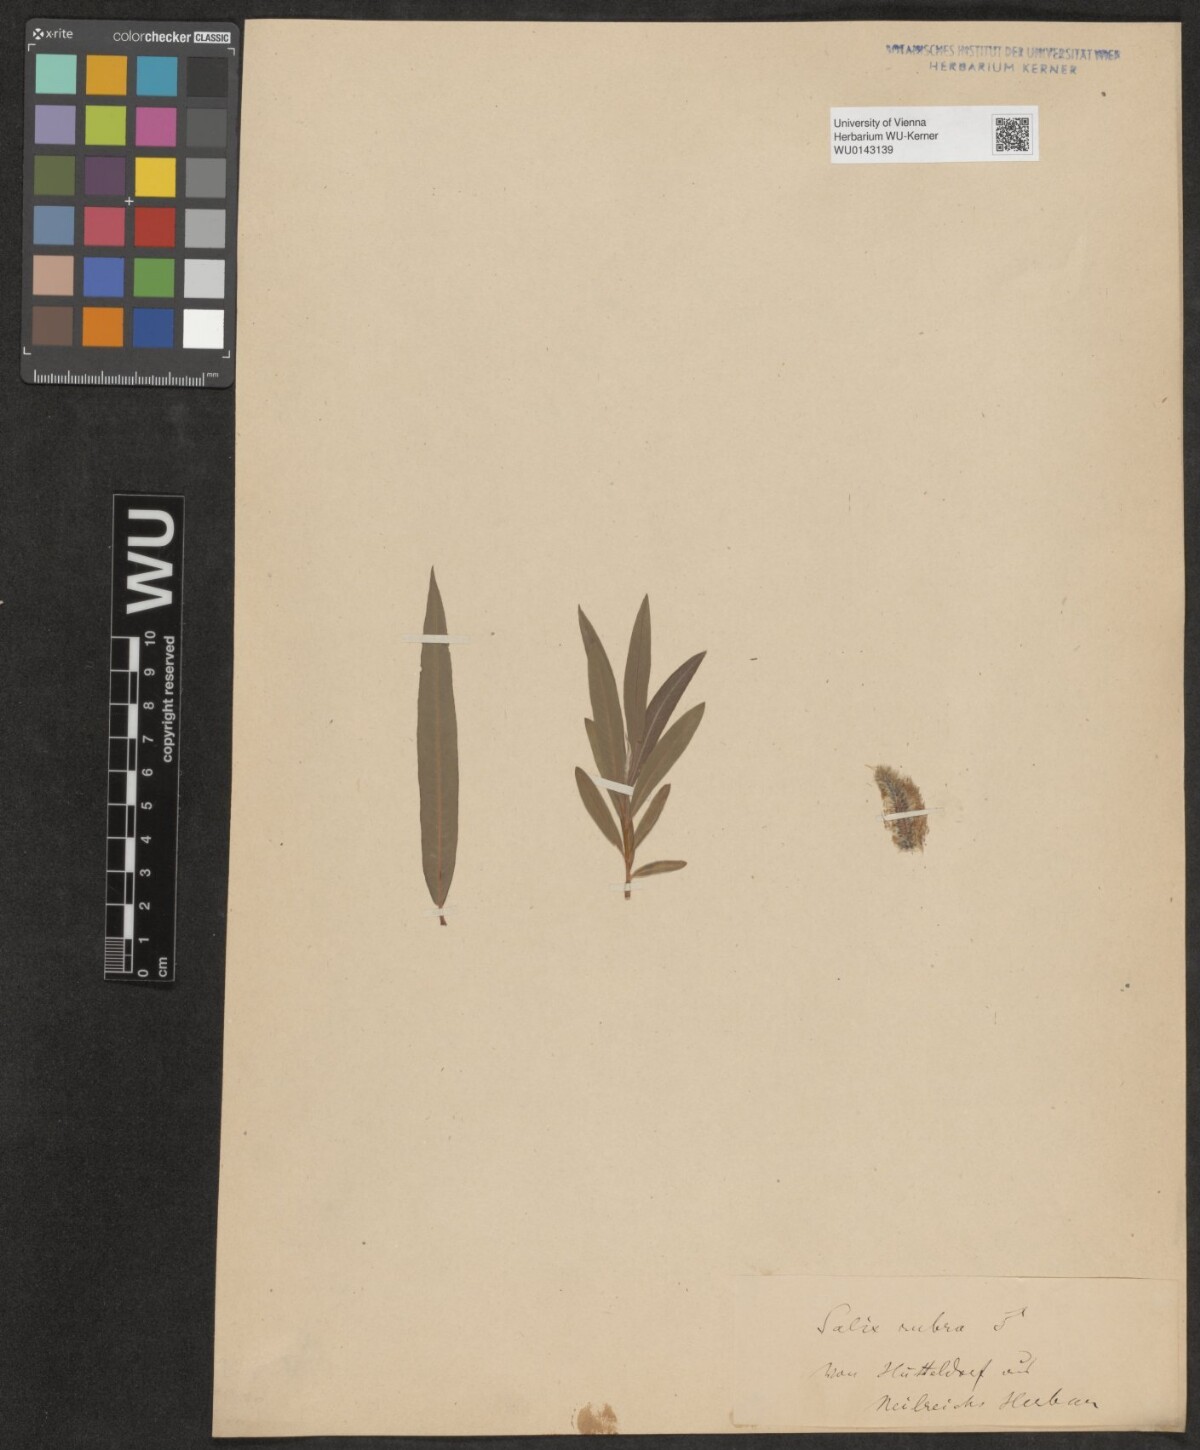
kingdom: Plantae
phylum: Tracheophyta
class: Magnoliopsida
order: Malpighiales
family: Salicaceae
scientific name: Salicaceae
